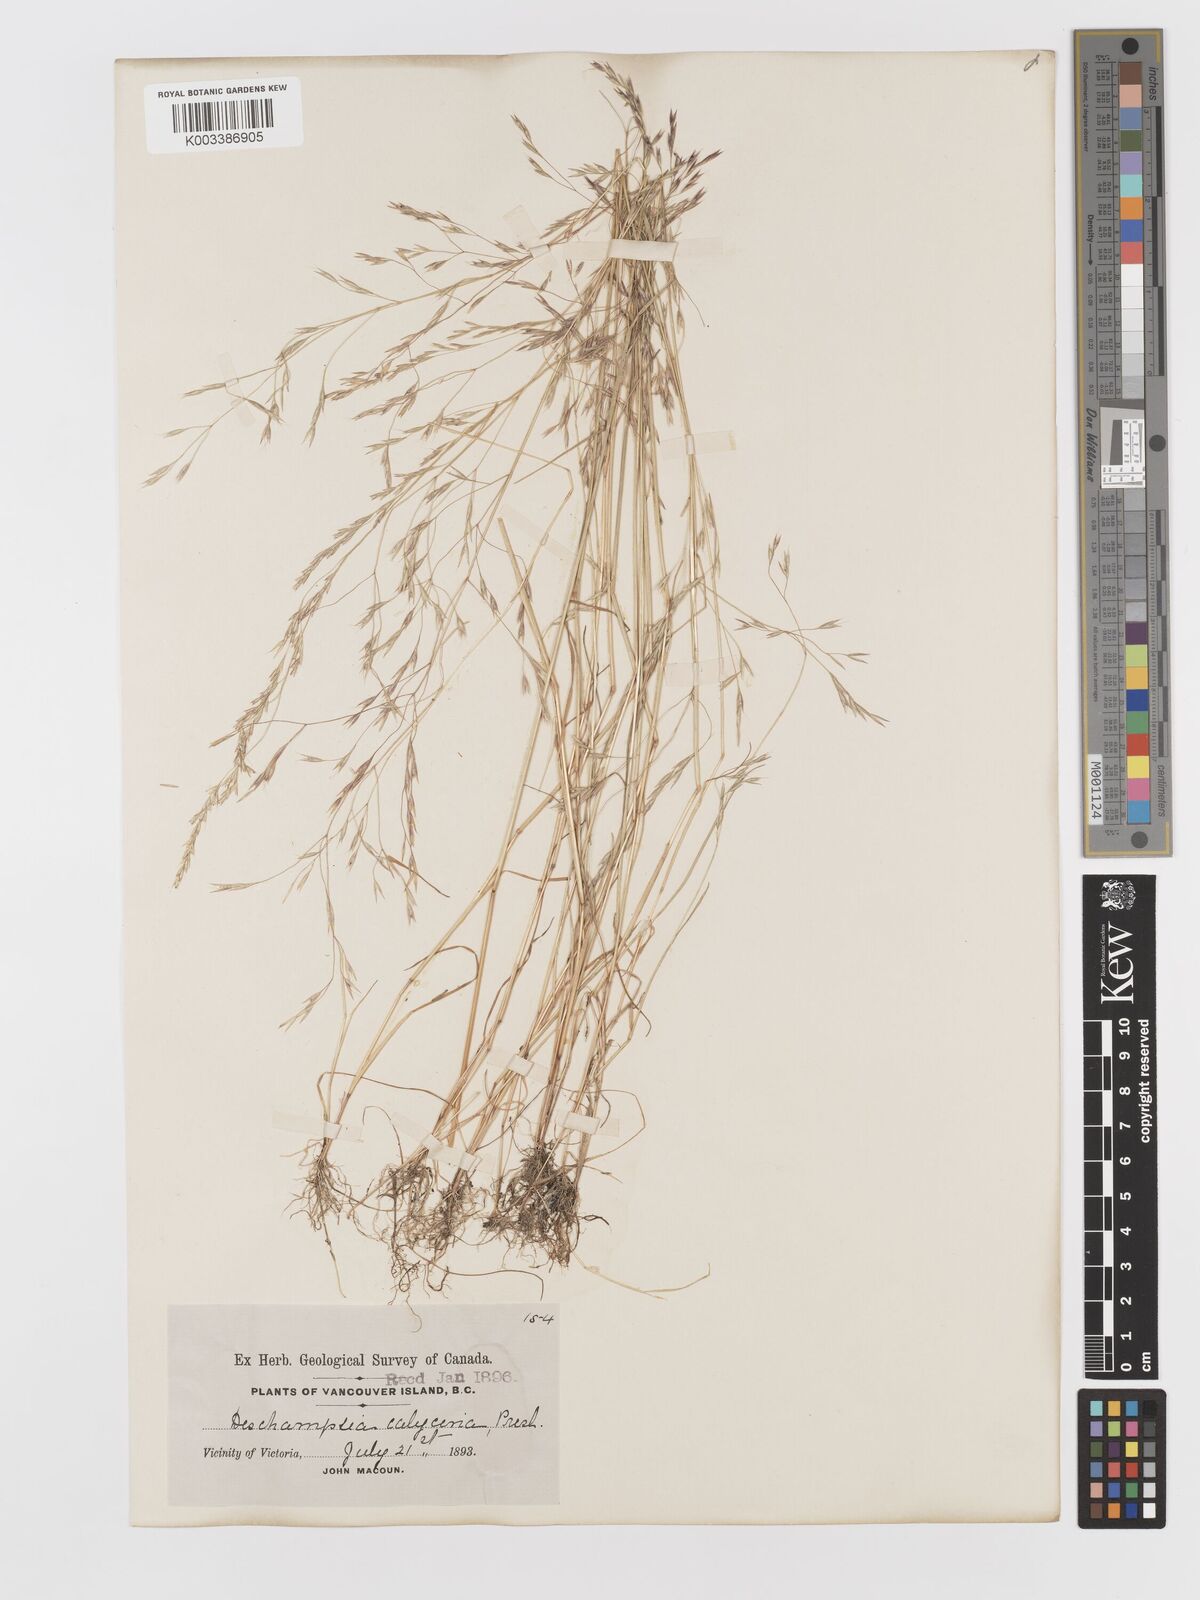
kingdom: Plantae
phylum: Tracheophyta
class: Liliopsida
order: Poales
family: Poaceae
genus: Deschampsia
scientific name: Deschampsia danthonioides
